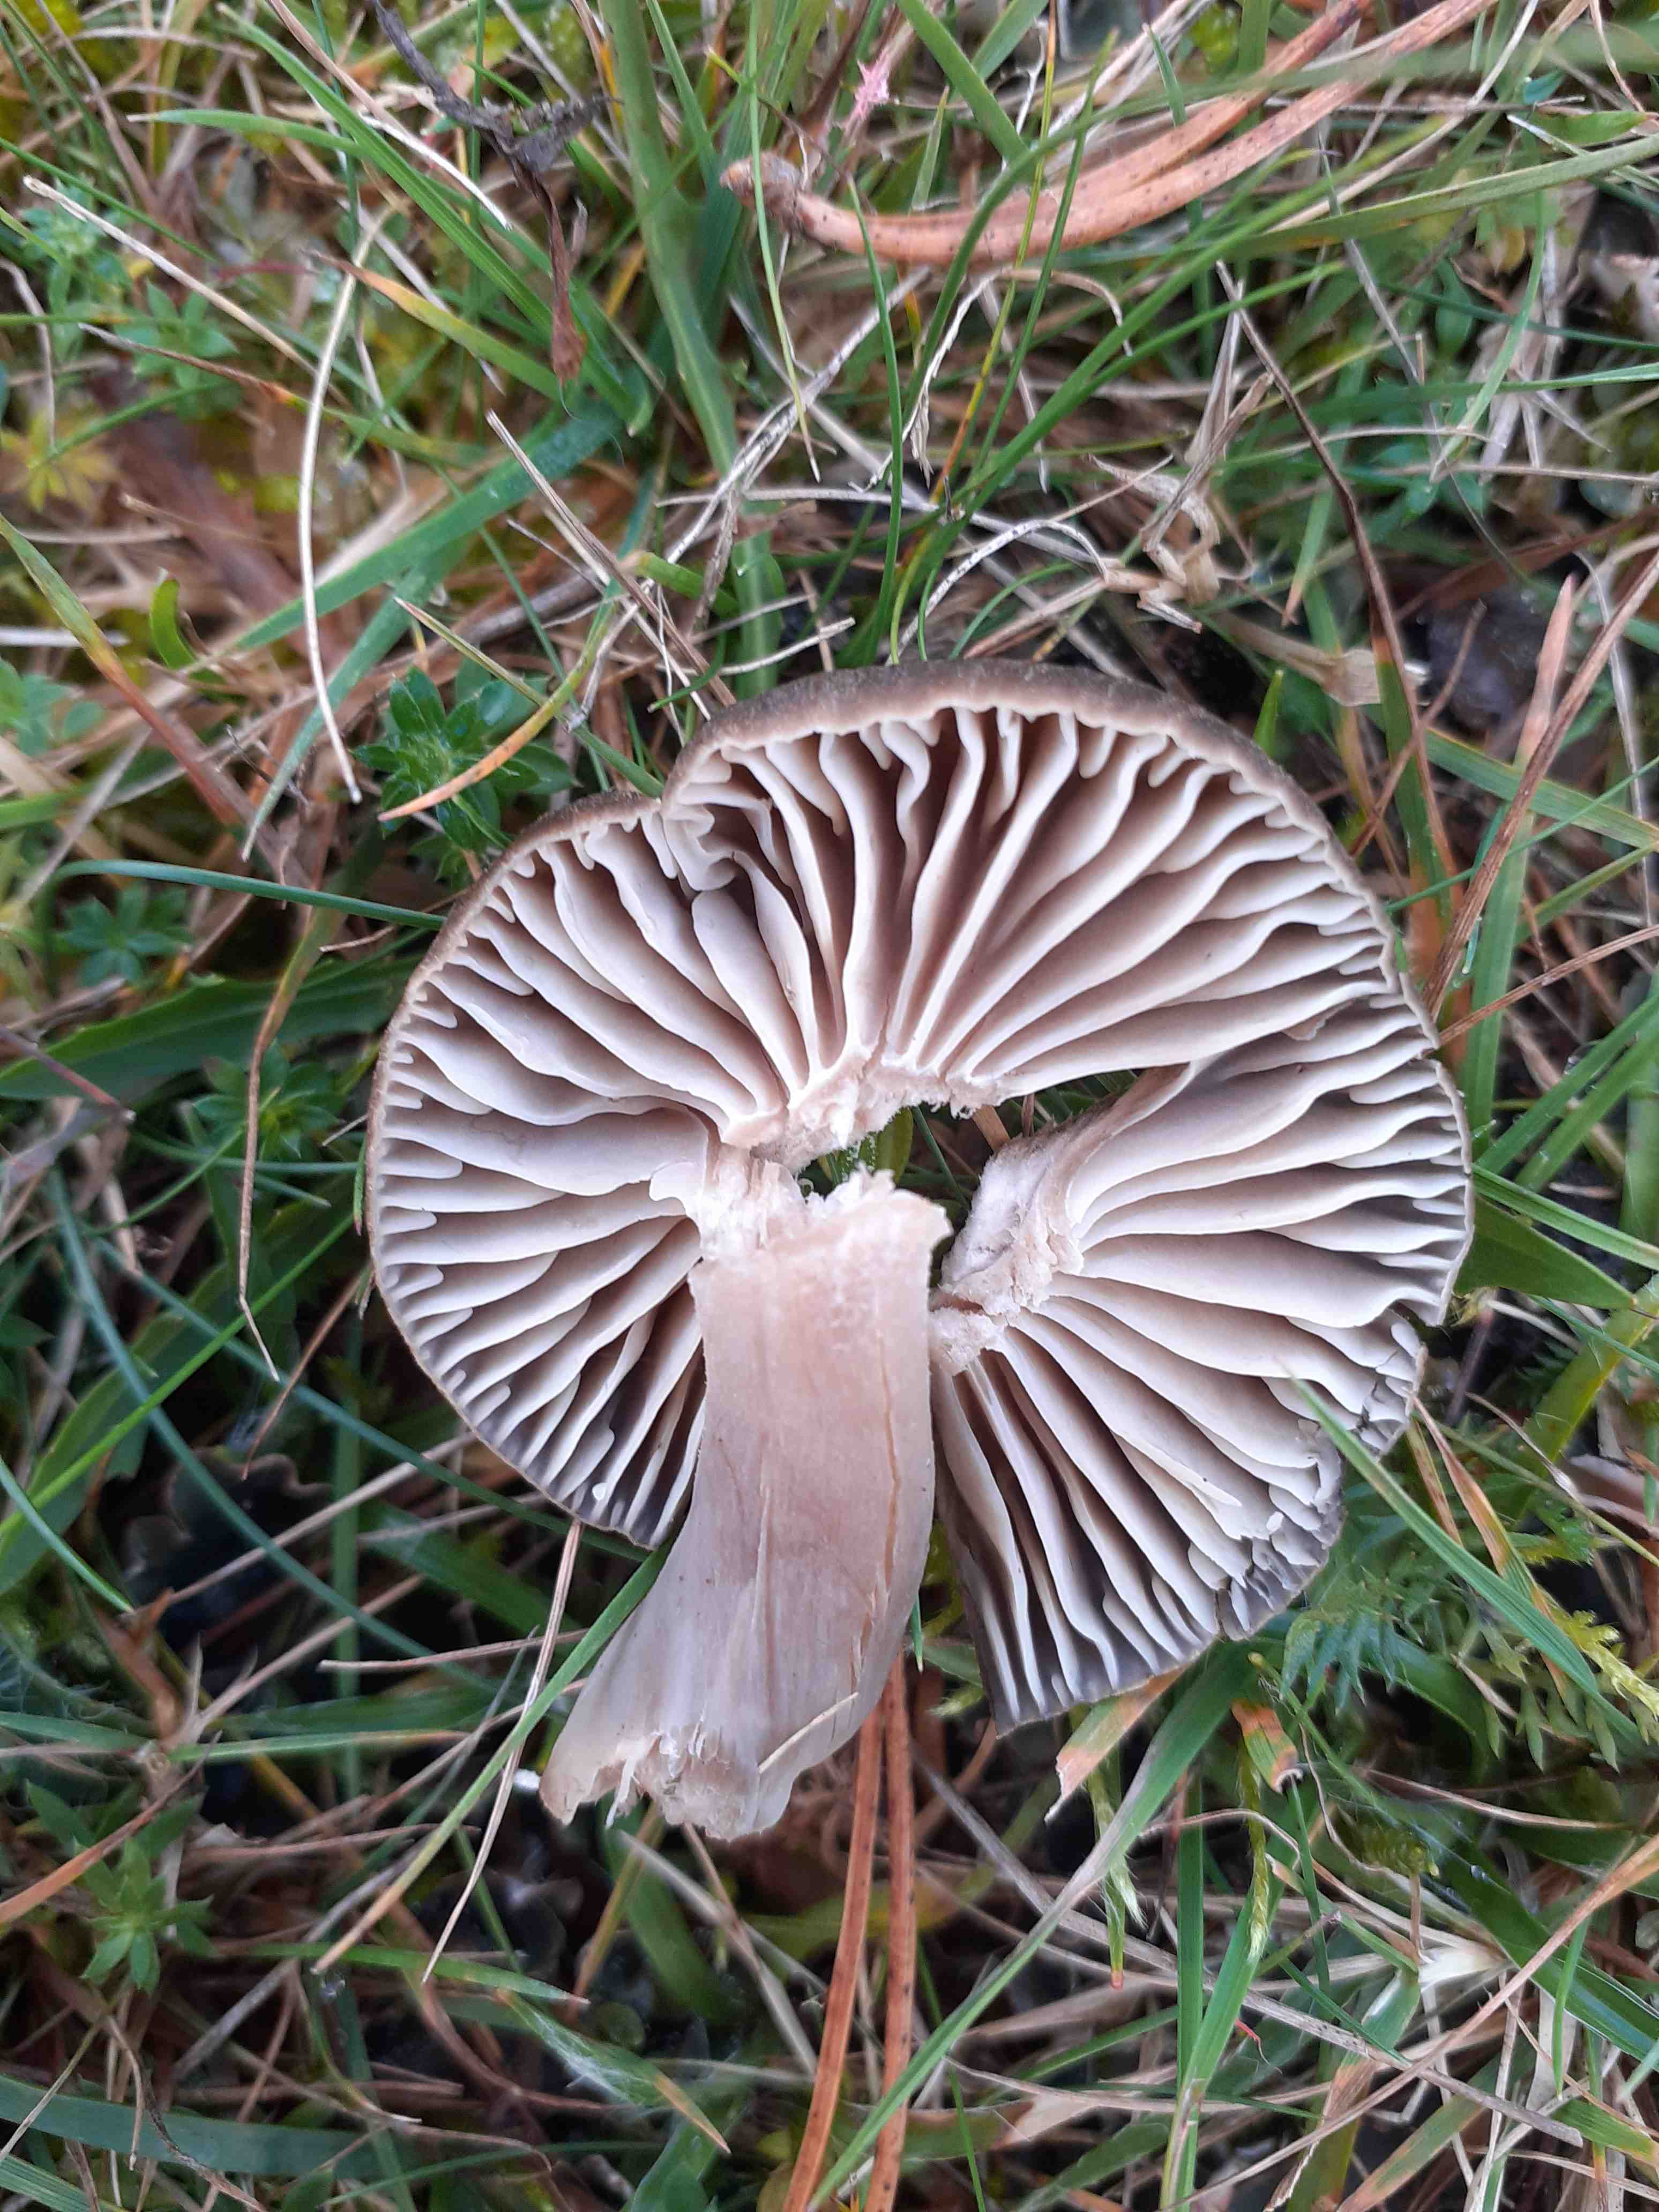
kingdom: Fungi
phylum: Basidiomycota
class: Agaricomycetes
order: Agaricales
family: Hygrophoraceae
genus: Neohygrocybe
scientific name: Neohygrocybe nitrata
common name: stinkende vokshat
